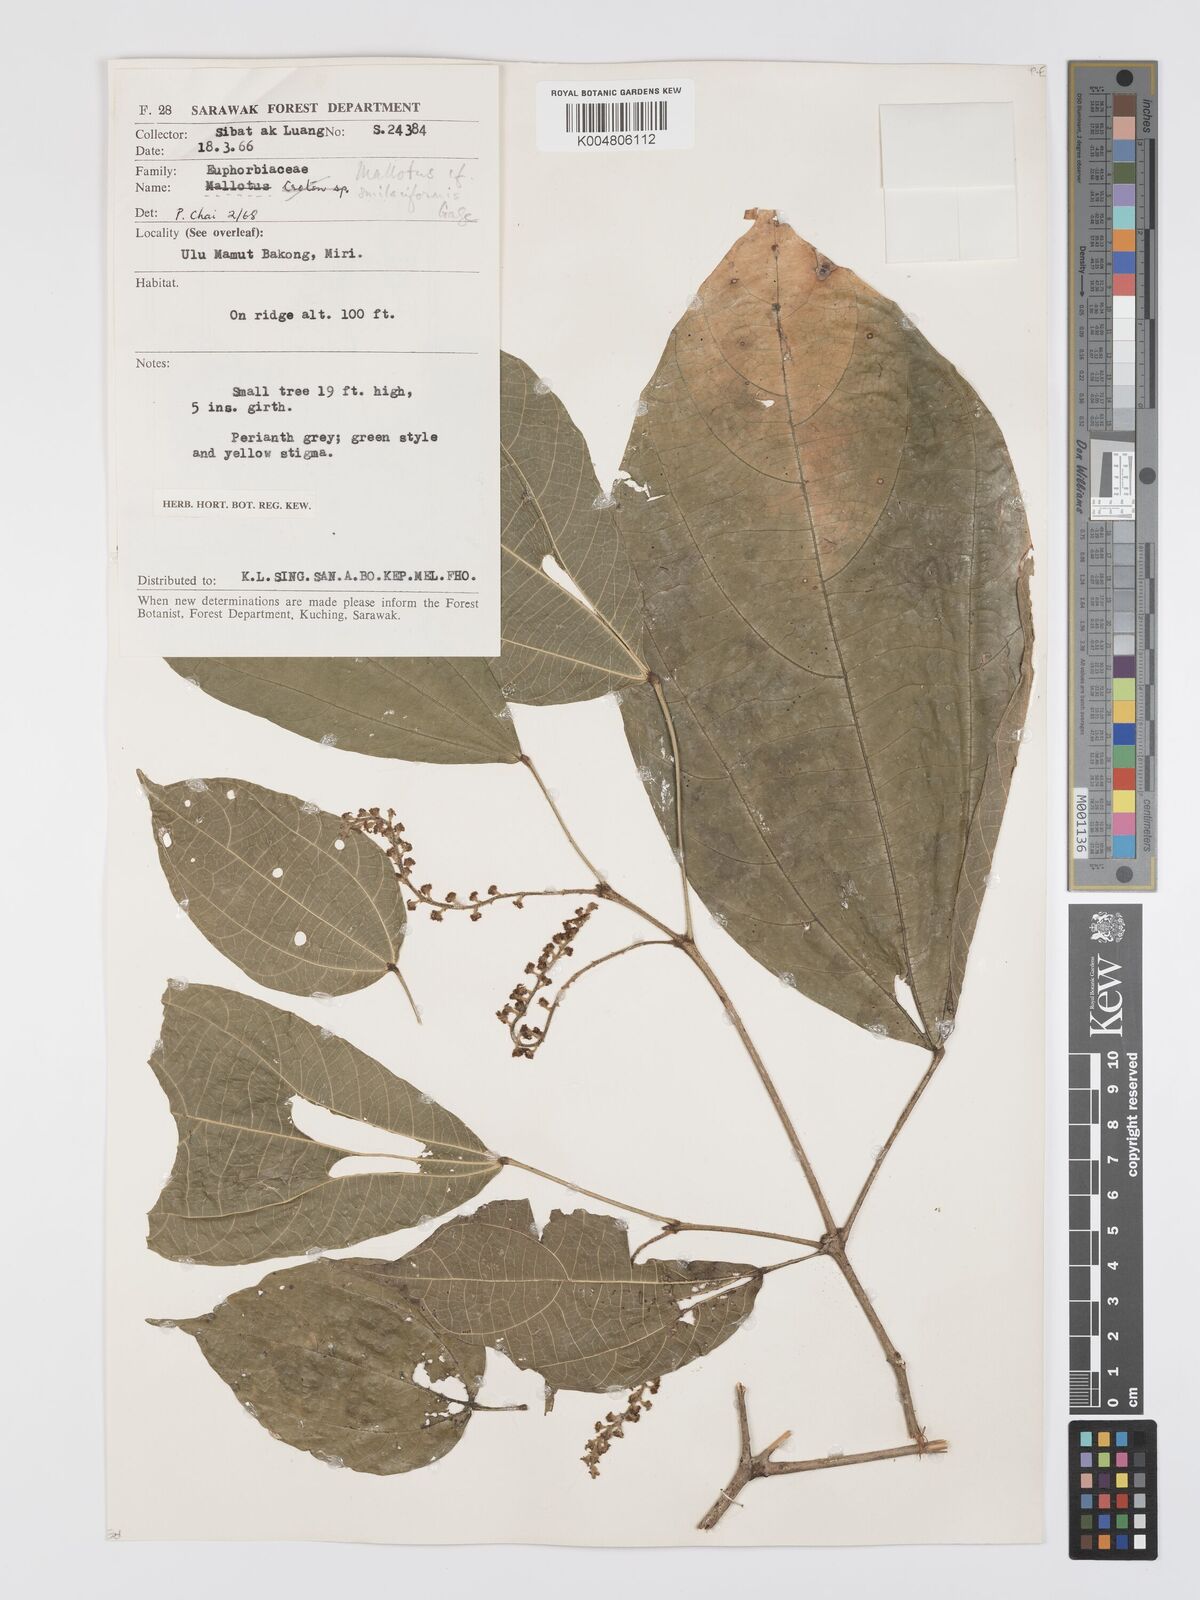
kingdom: Plantae
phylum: Tracheophyta
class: Magnoliopsida
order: Malpighiales
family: Euphorbiaceae
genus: Mallotus
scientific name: Mallotus korthalsii
